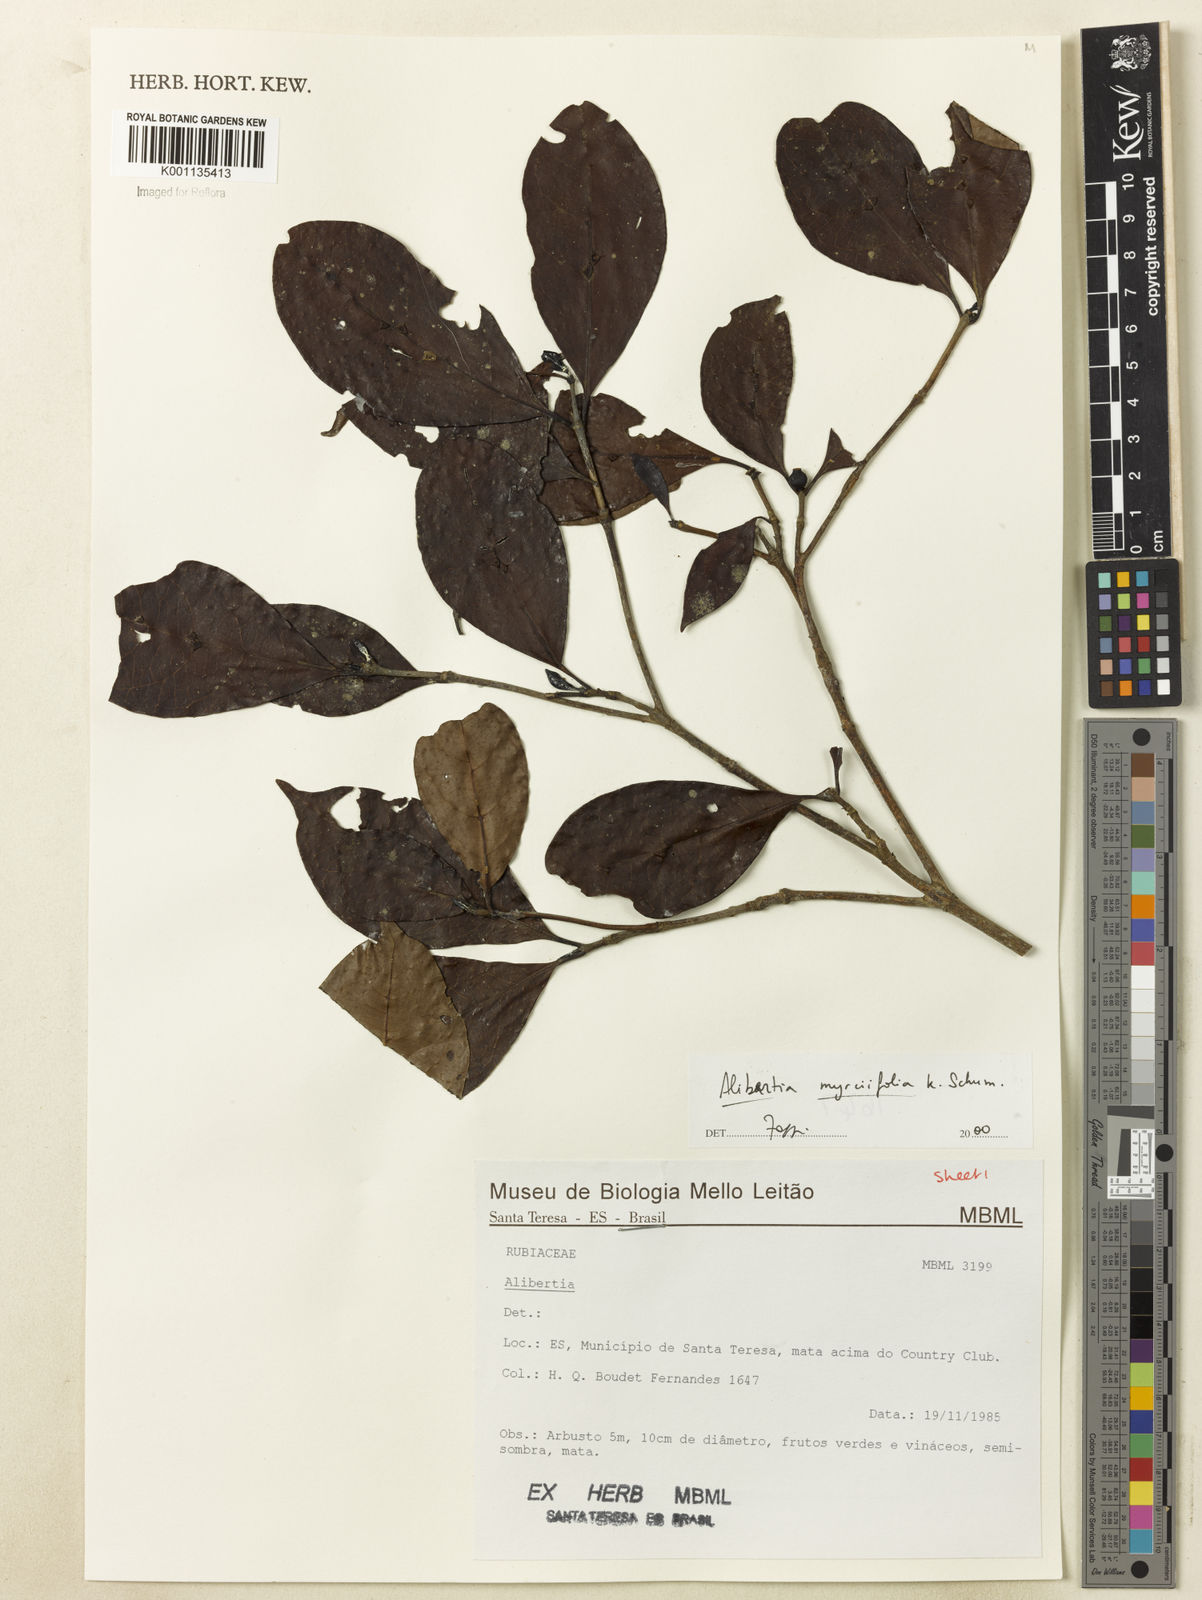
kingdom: Plantae
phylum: Tracheophyta
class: Magnoliopsida
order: Gentianales
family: Rubiaceae
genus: Cordiera
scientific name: Cordiera myrciifolia
